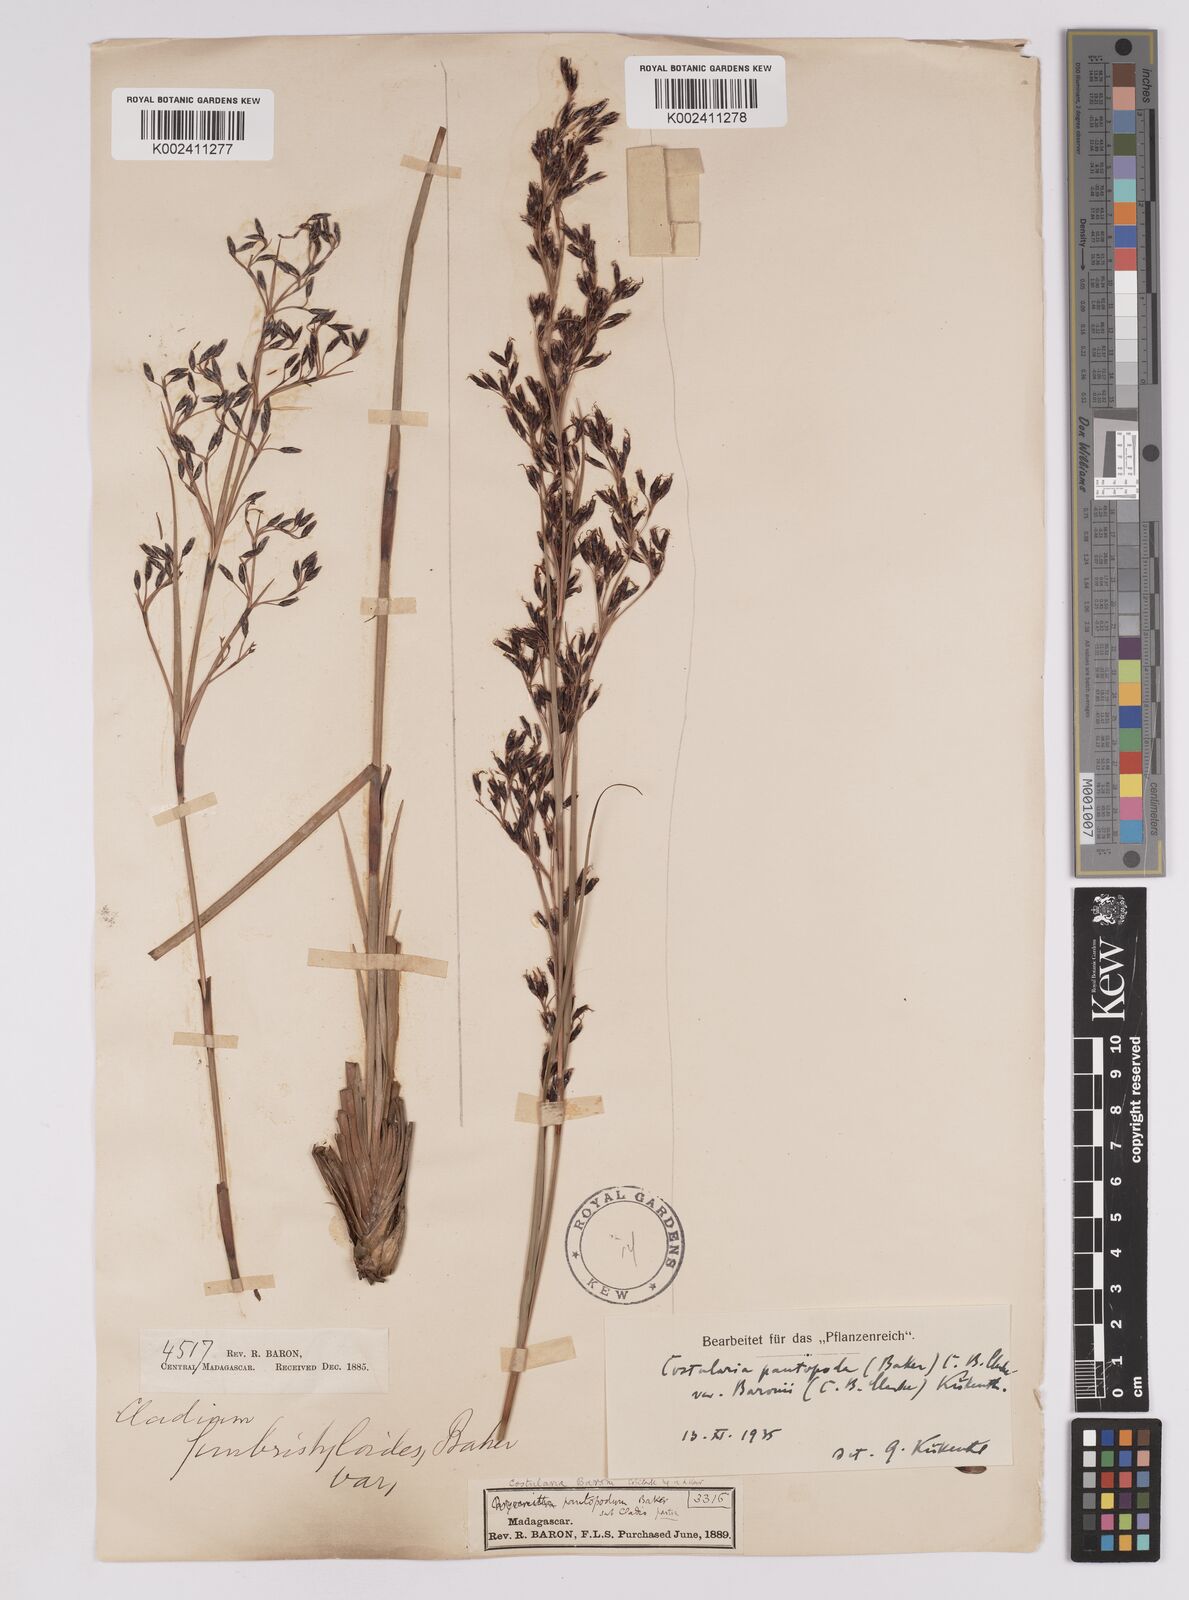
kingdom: Plantae
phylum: Tracheophyta
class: Liliopsida
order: Poales
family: Cyperaceae
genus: Costularia
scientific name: Costularia pantopoda
